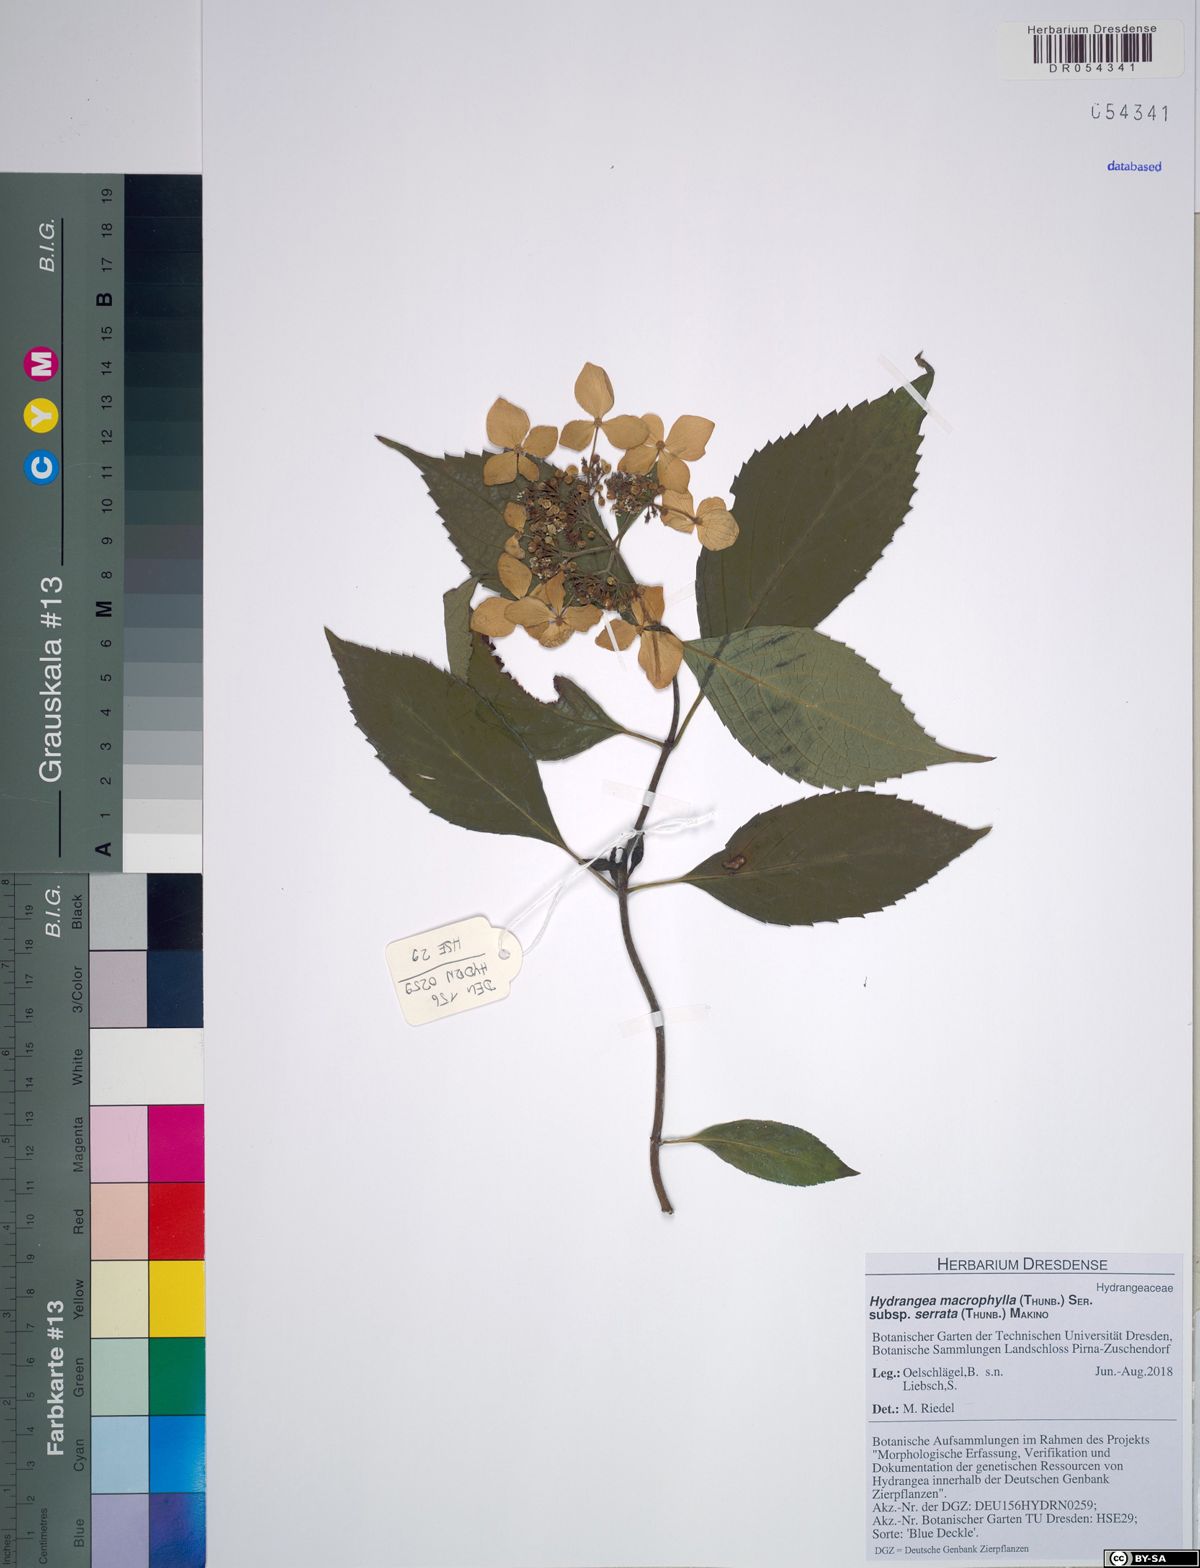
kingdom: Plantae
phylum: Tracheophyta
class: Magnoliopsida
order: Cornales
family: Hydrangeaceae
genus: Hydrangea
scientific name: Hydrangea serrata
